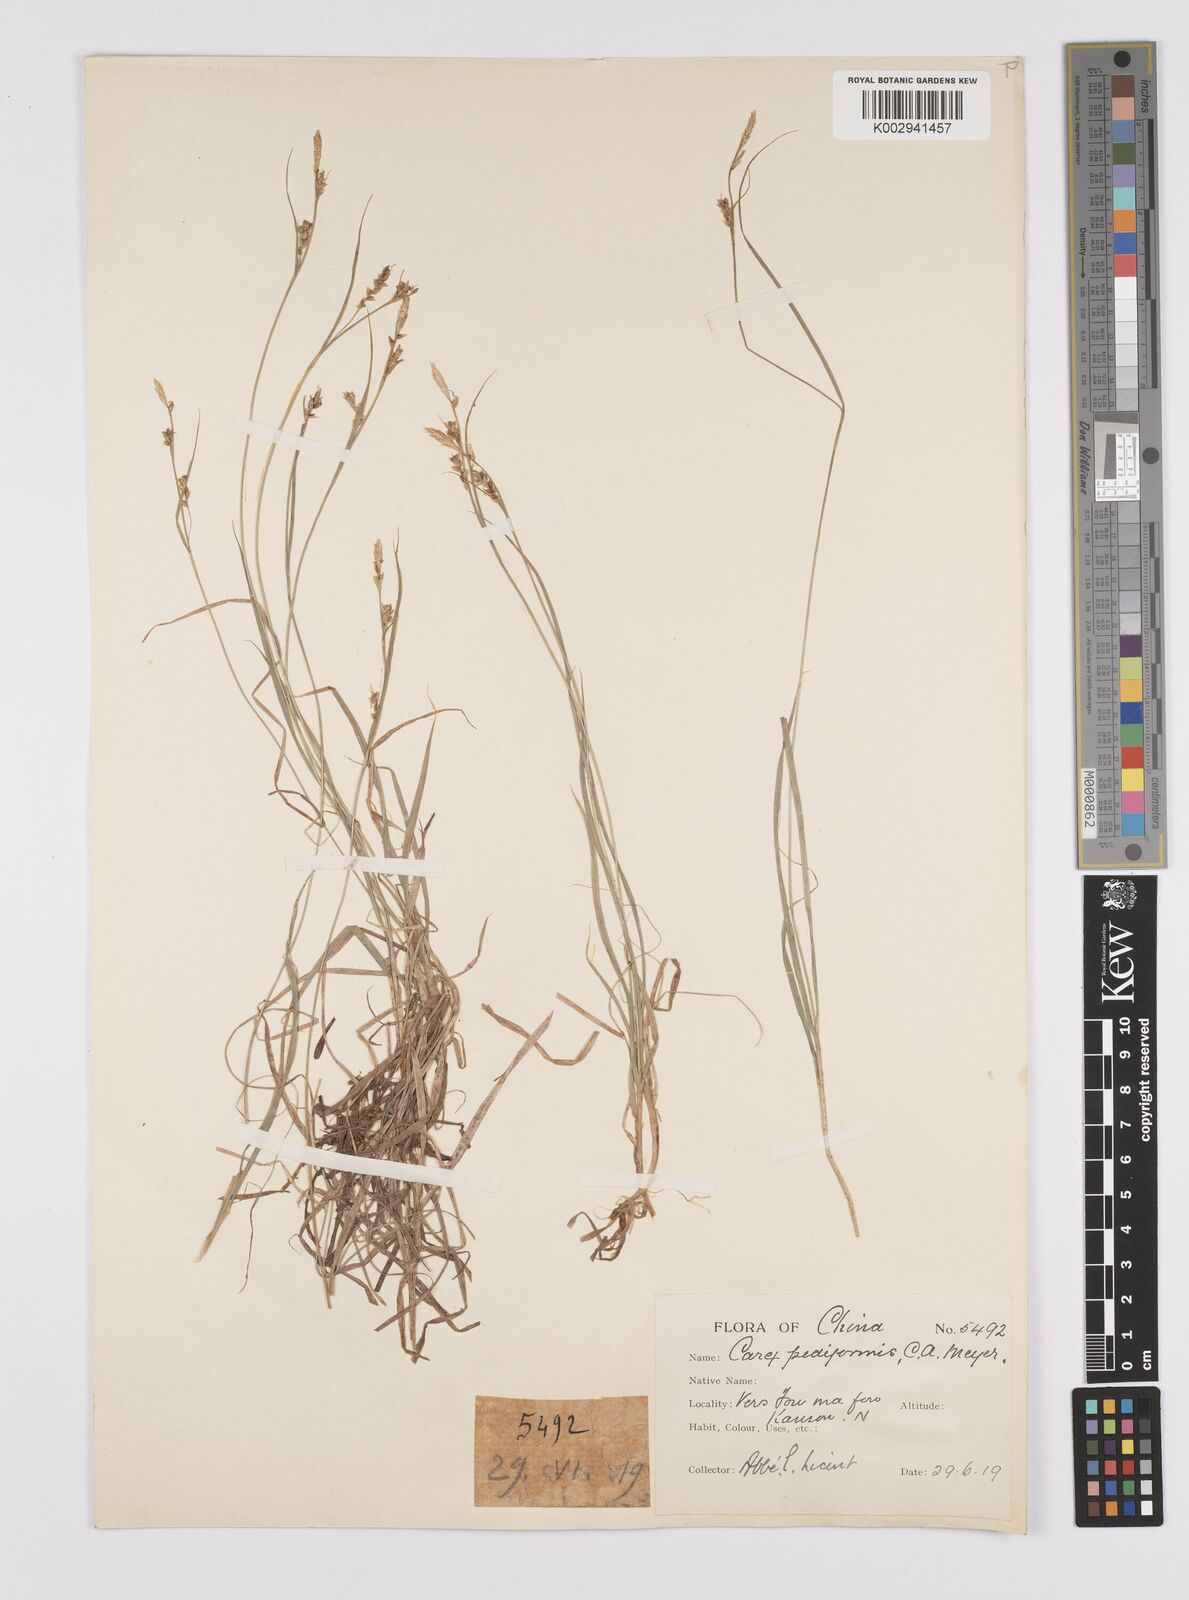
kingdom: Plantae
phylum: Tracheophyta
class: Liliopsida
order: Poales
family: Cyperaceae
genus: Carex
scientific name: Carex lanceolata
